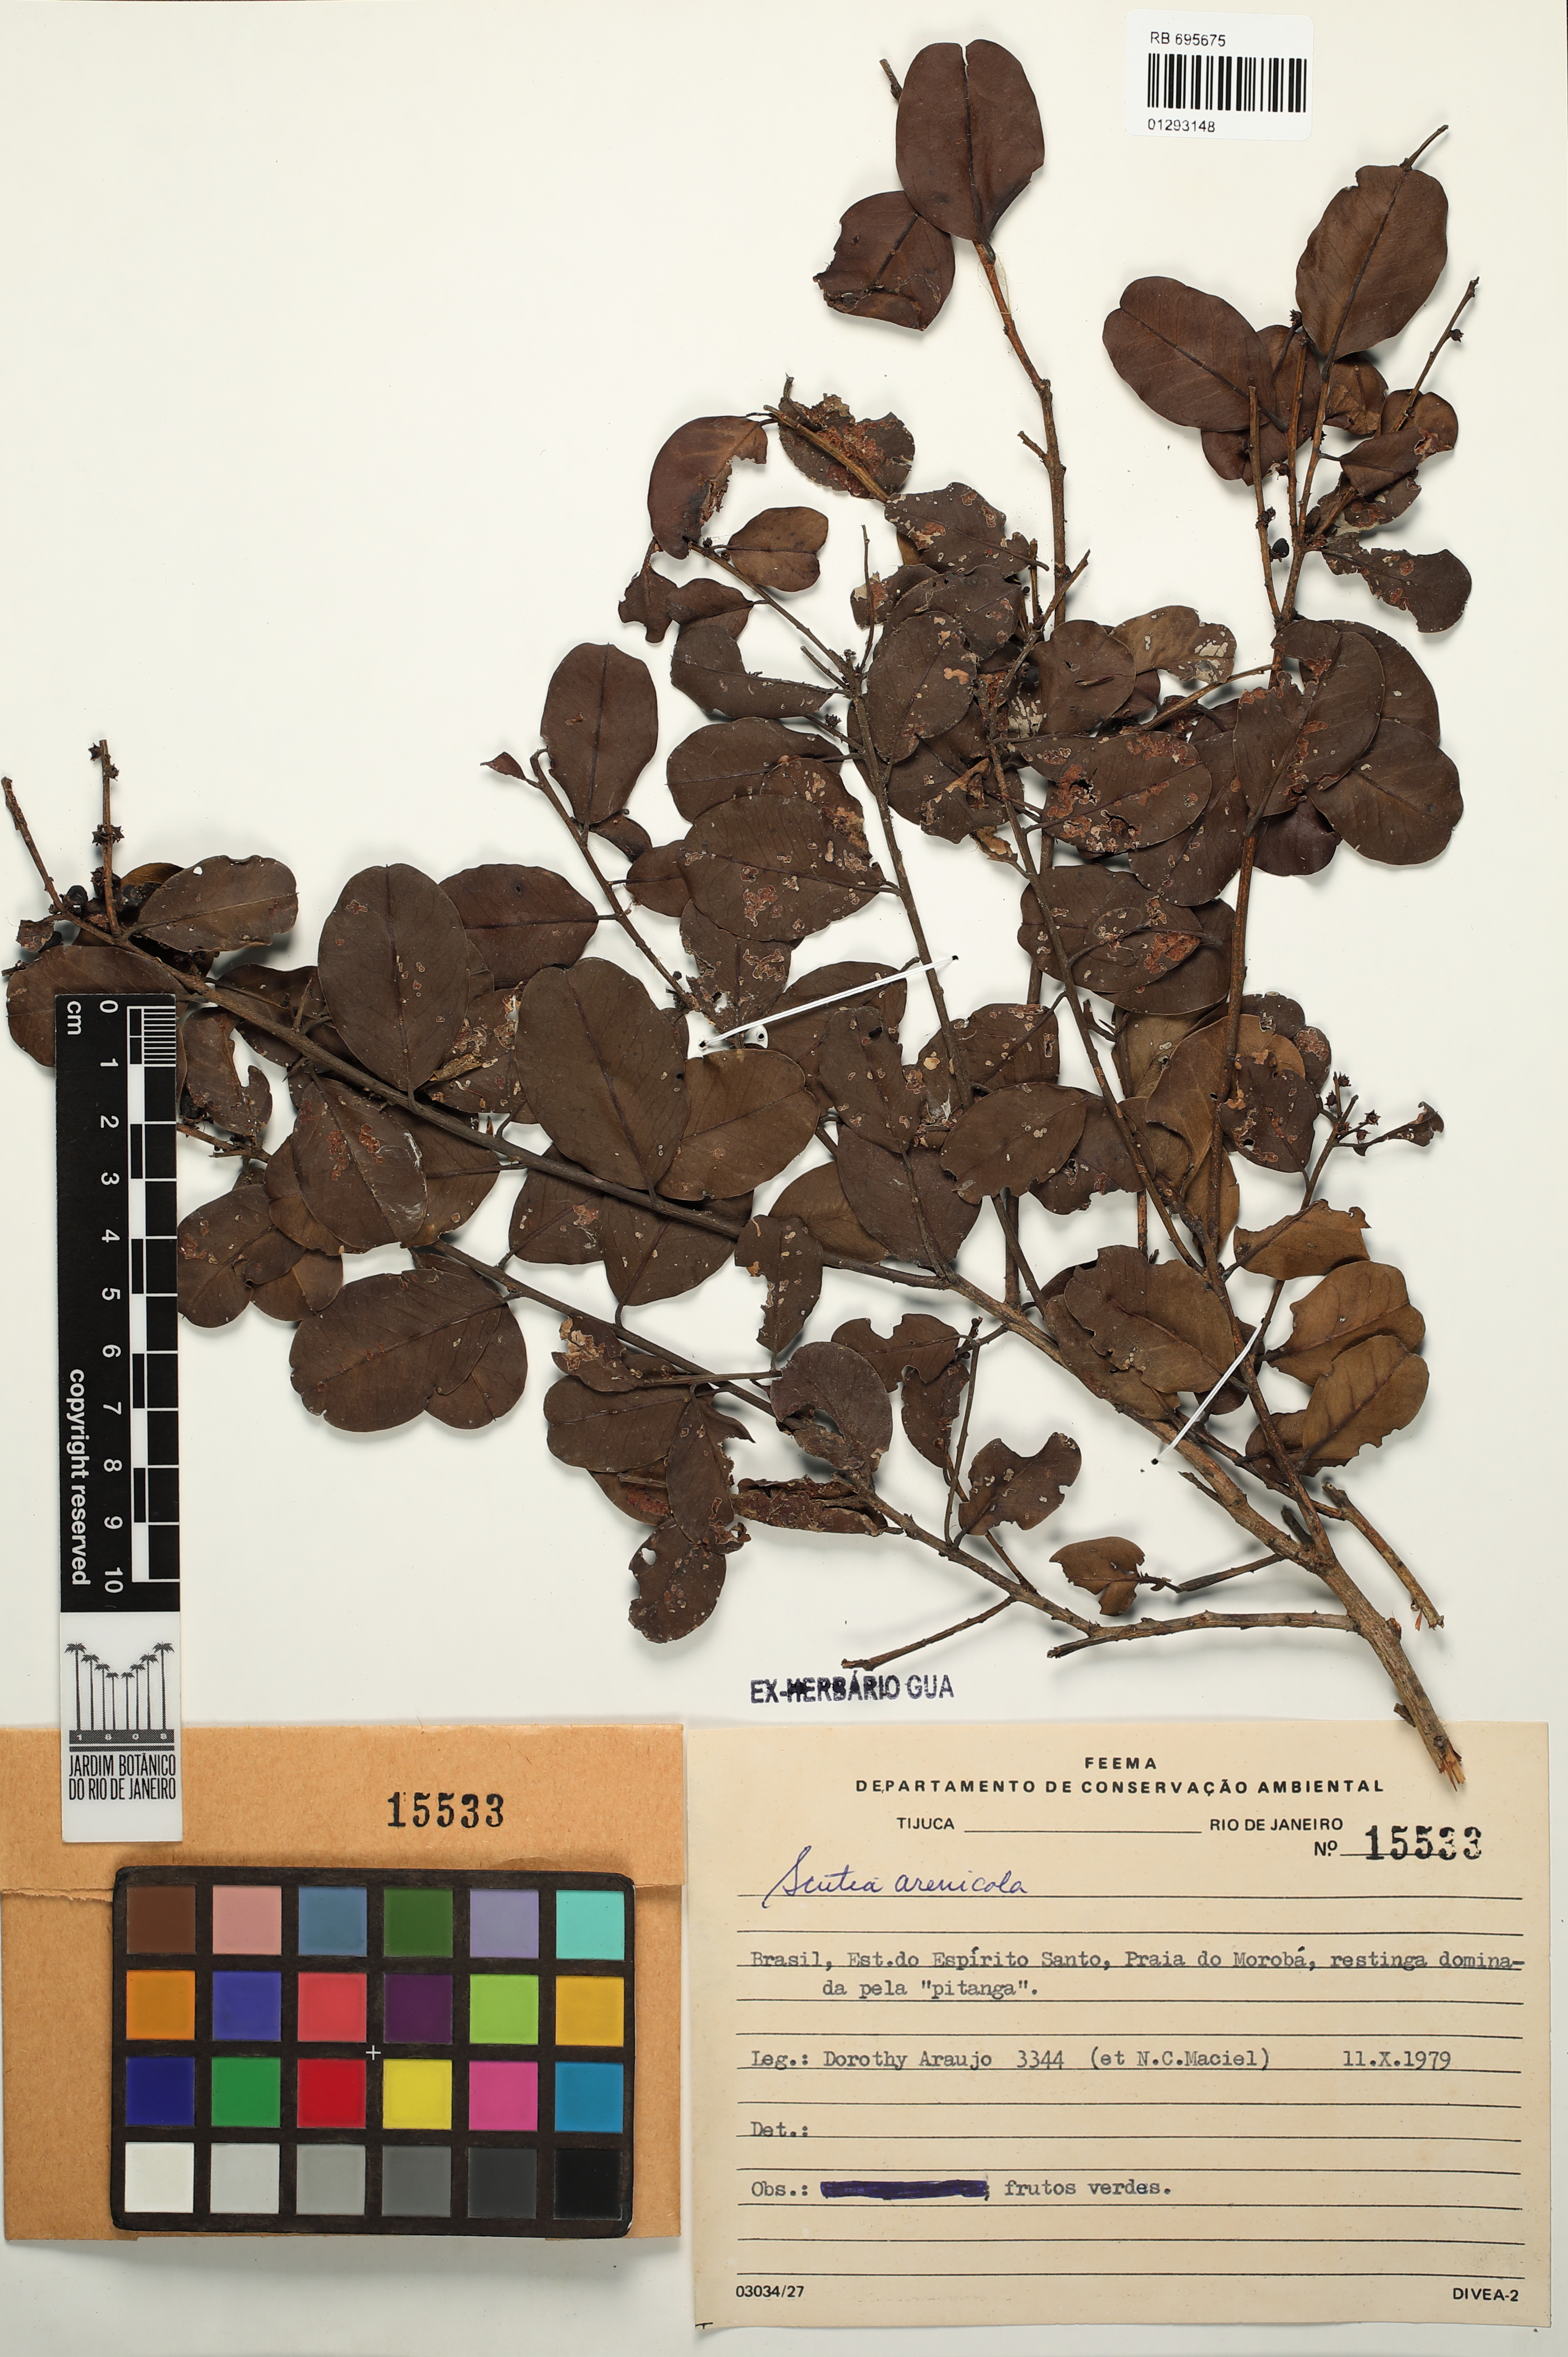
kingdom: Plantae
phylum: Tracheophyta
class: Magnoliopsida
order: Rosales
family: Rhamnaceae
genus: Scutia
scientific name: Scutia arenicola
